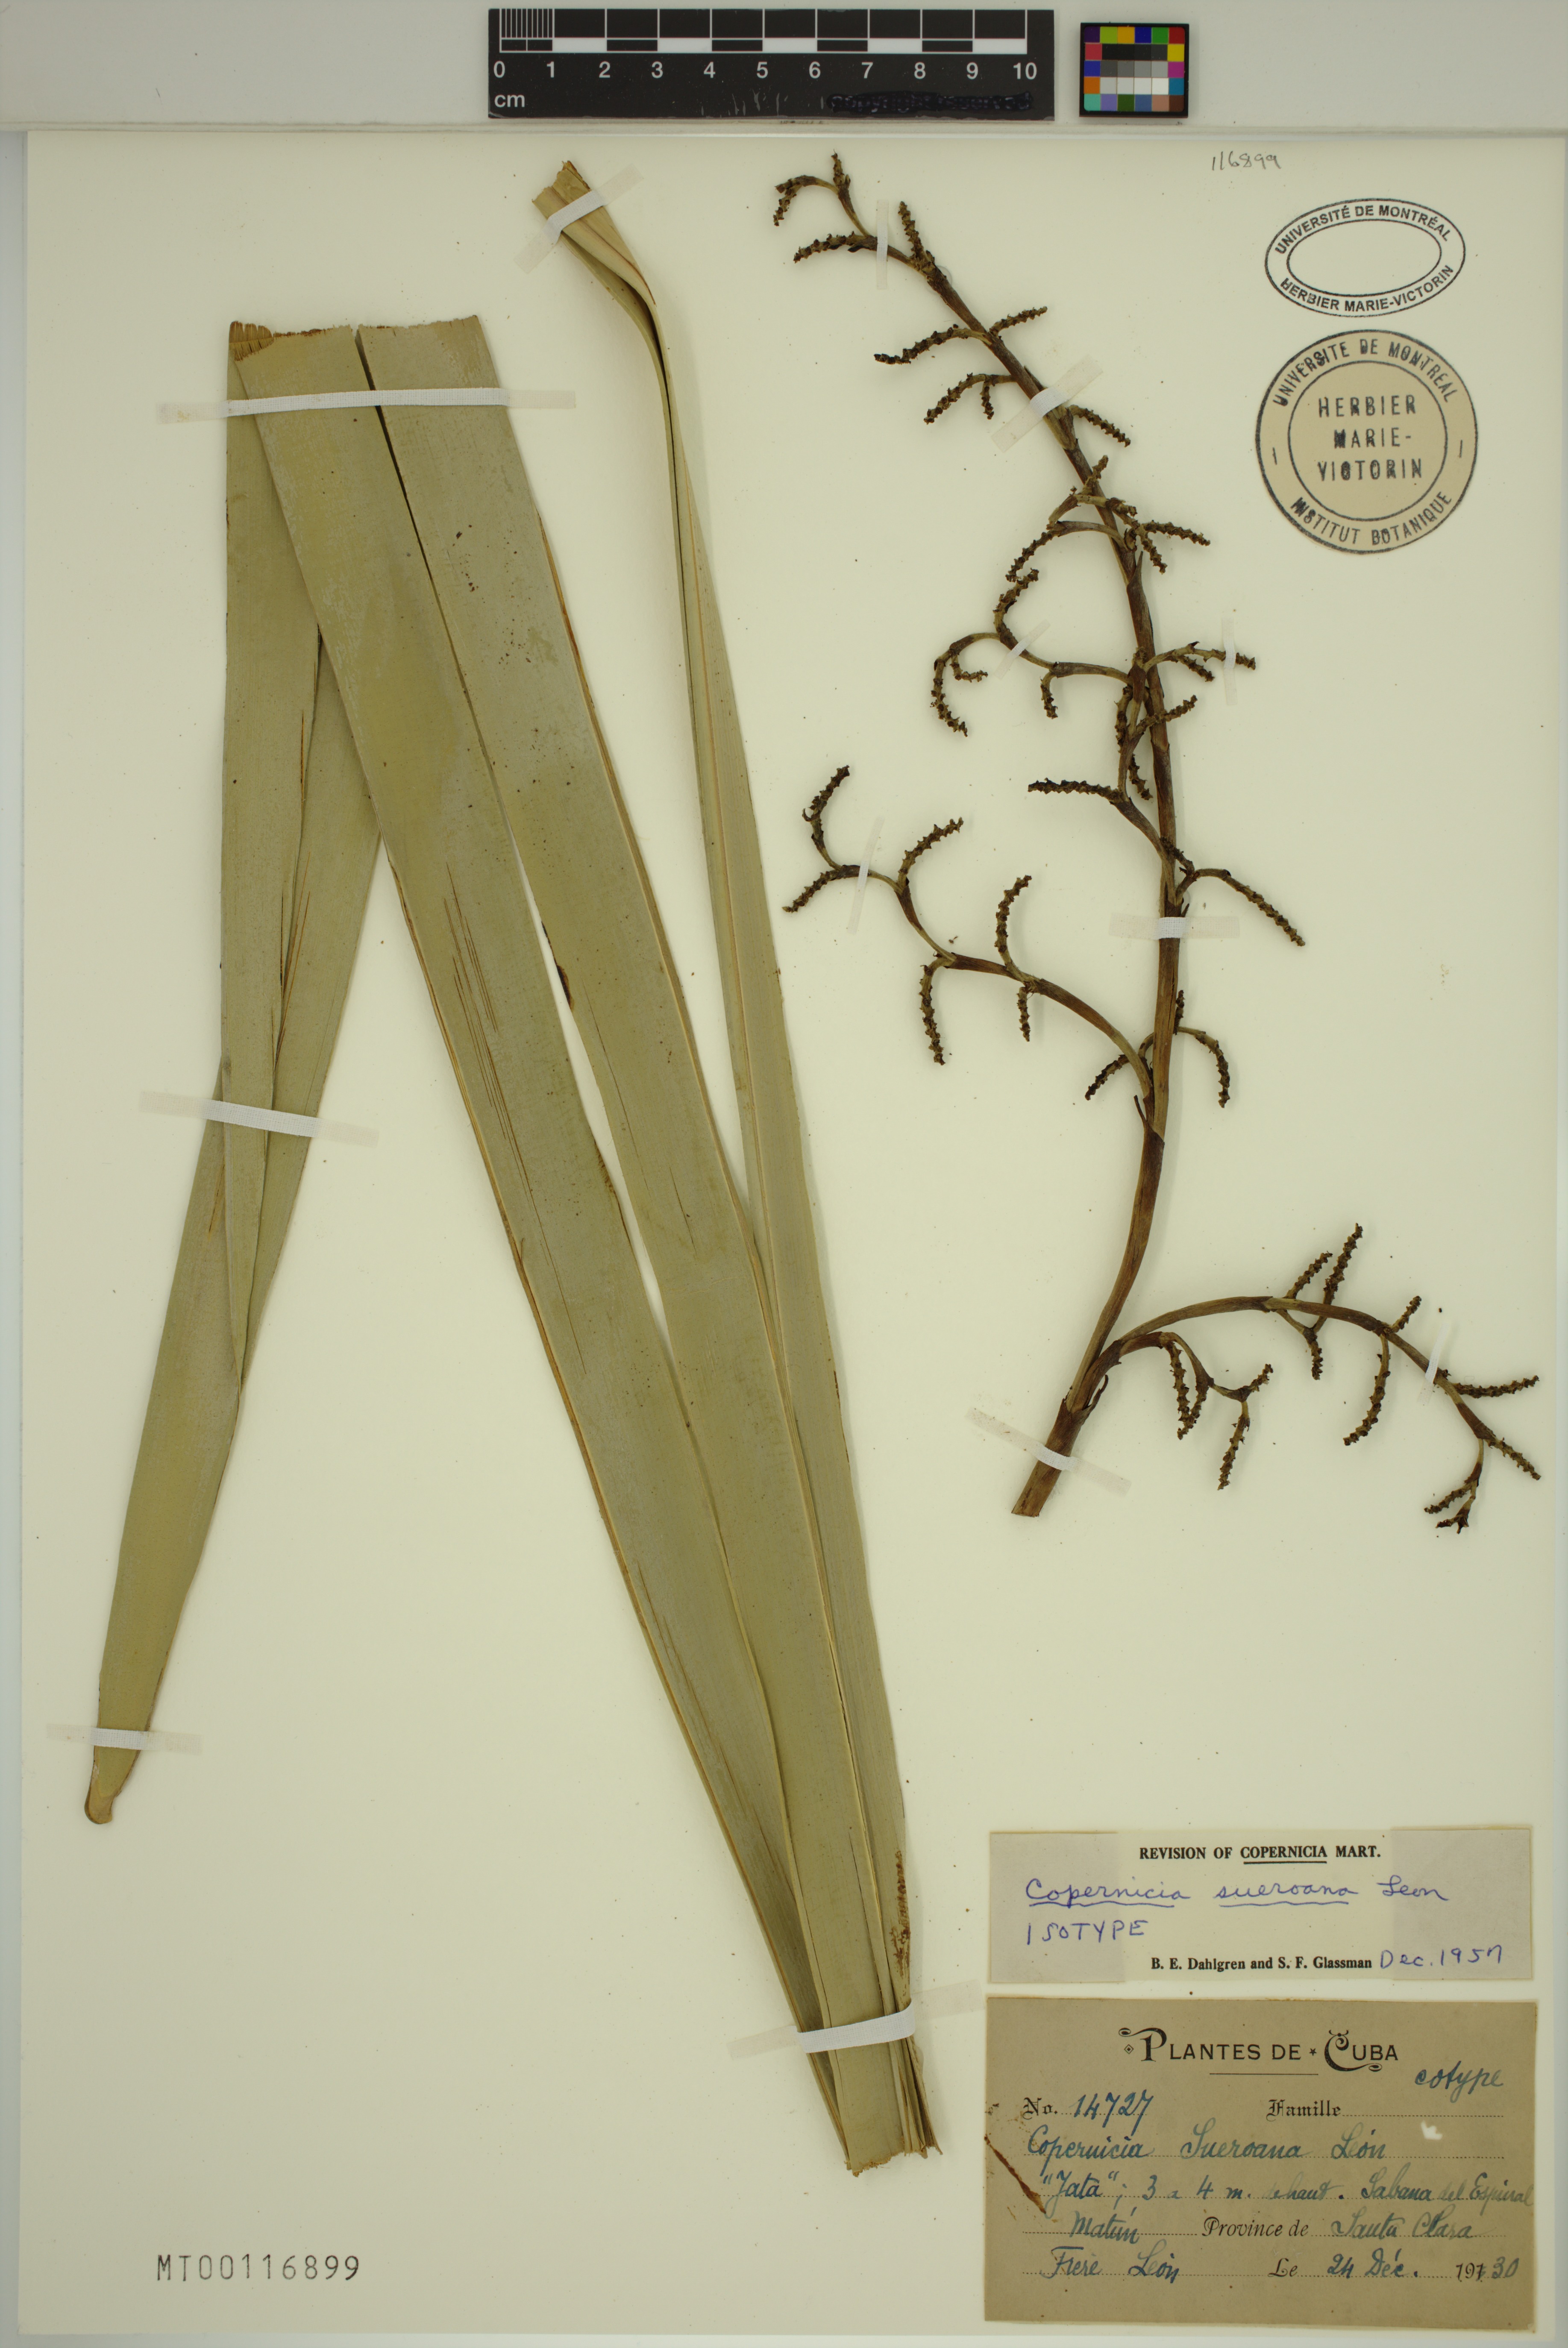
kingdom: Plantae
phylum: Tracheophyta
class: Liliopsida
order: Arecales
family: Arecaceae
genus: Copernicia
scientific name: Copernicia sueroana
